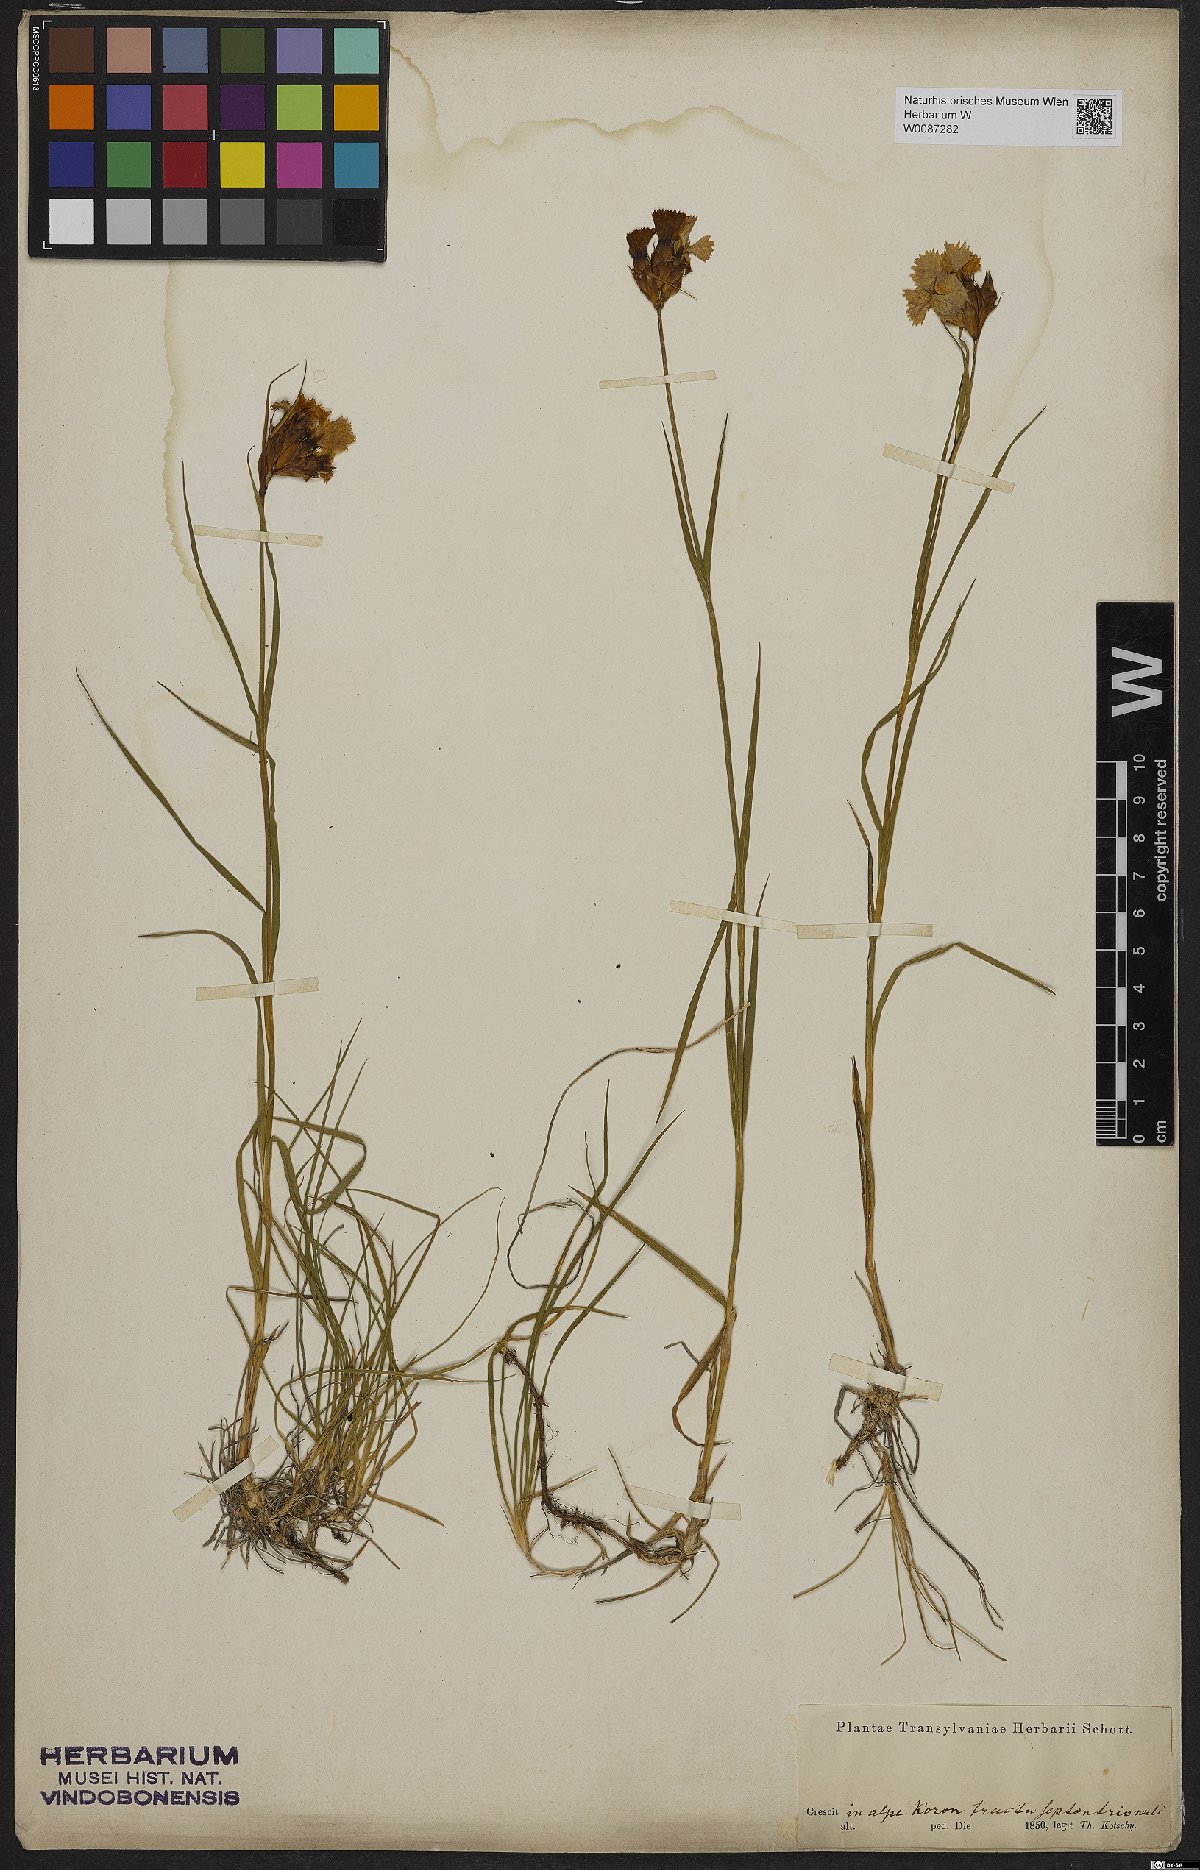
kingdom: Plantae
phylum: Tracheophyta
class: Magnoliopsida
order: Caryophyllales
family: Caryophyllaceae
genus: Dianthus
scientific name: Dianthus
